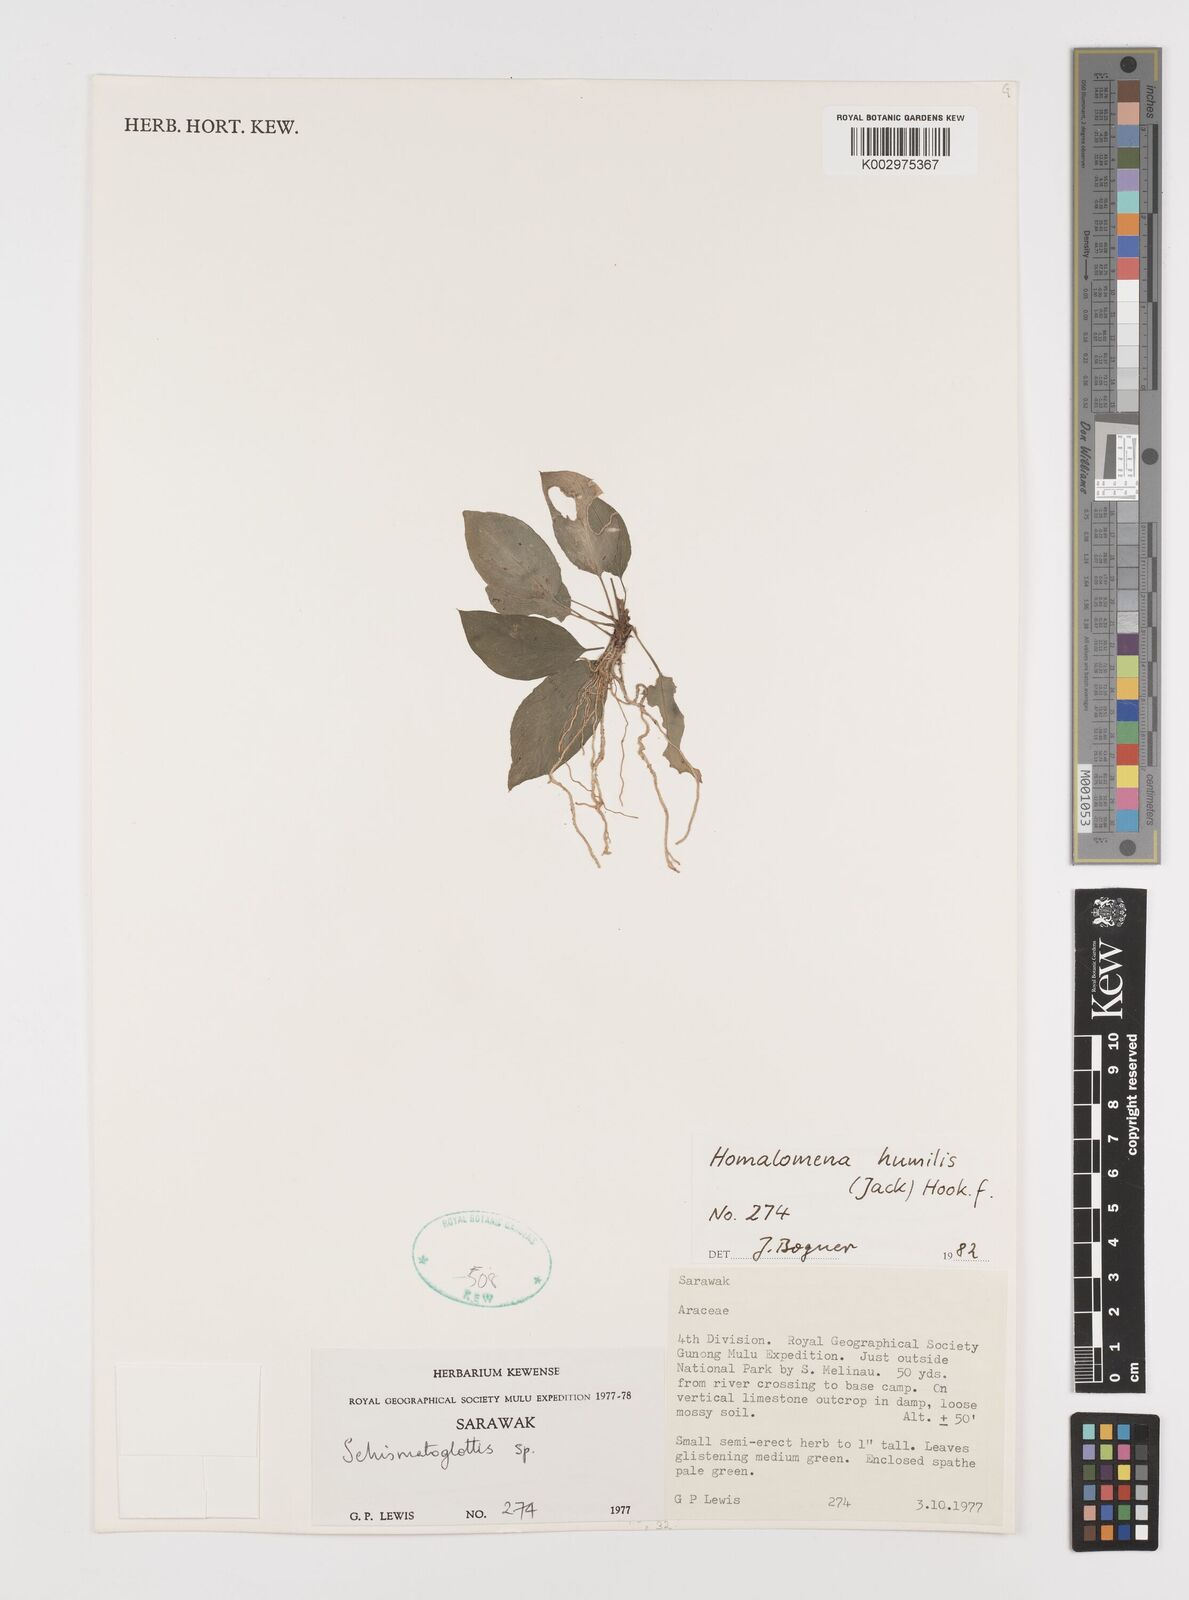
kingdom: Plantae
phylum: Tracheophyta
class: Liliopsida
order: Alismatales
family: Araceae
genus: Homalomena
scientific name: Homalomena humilis
